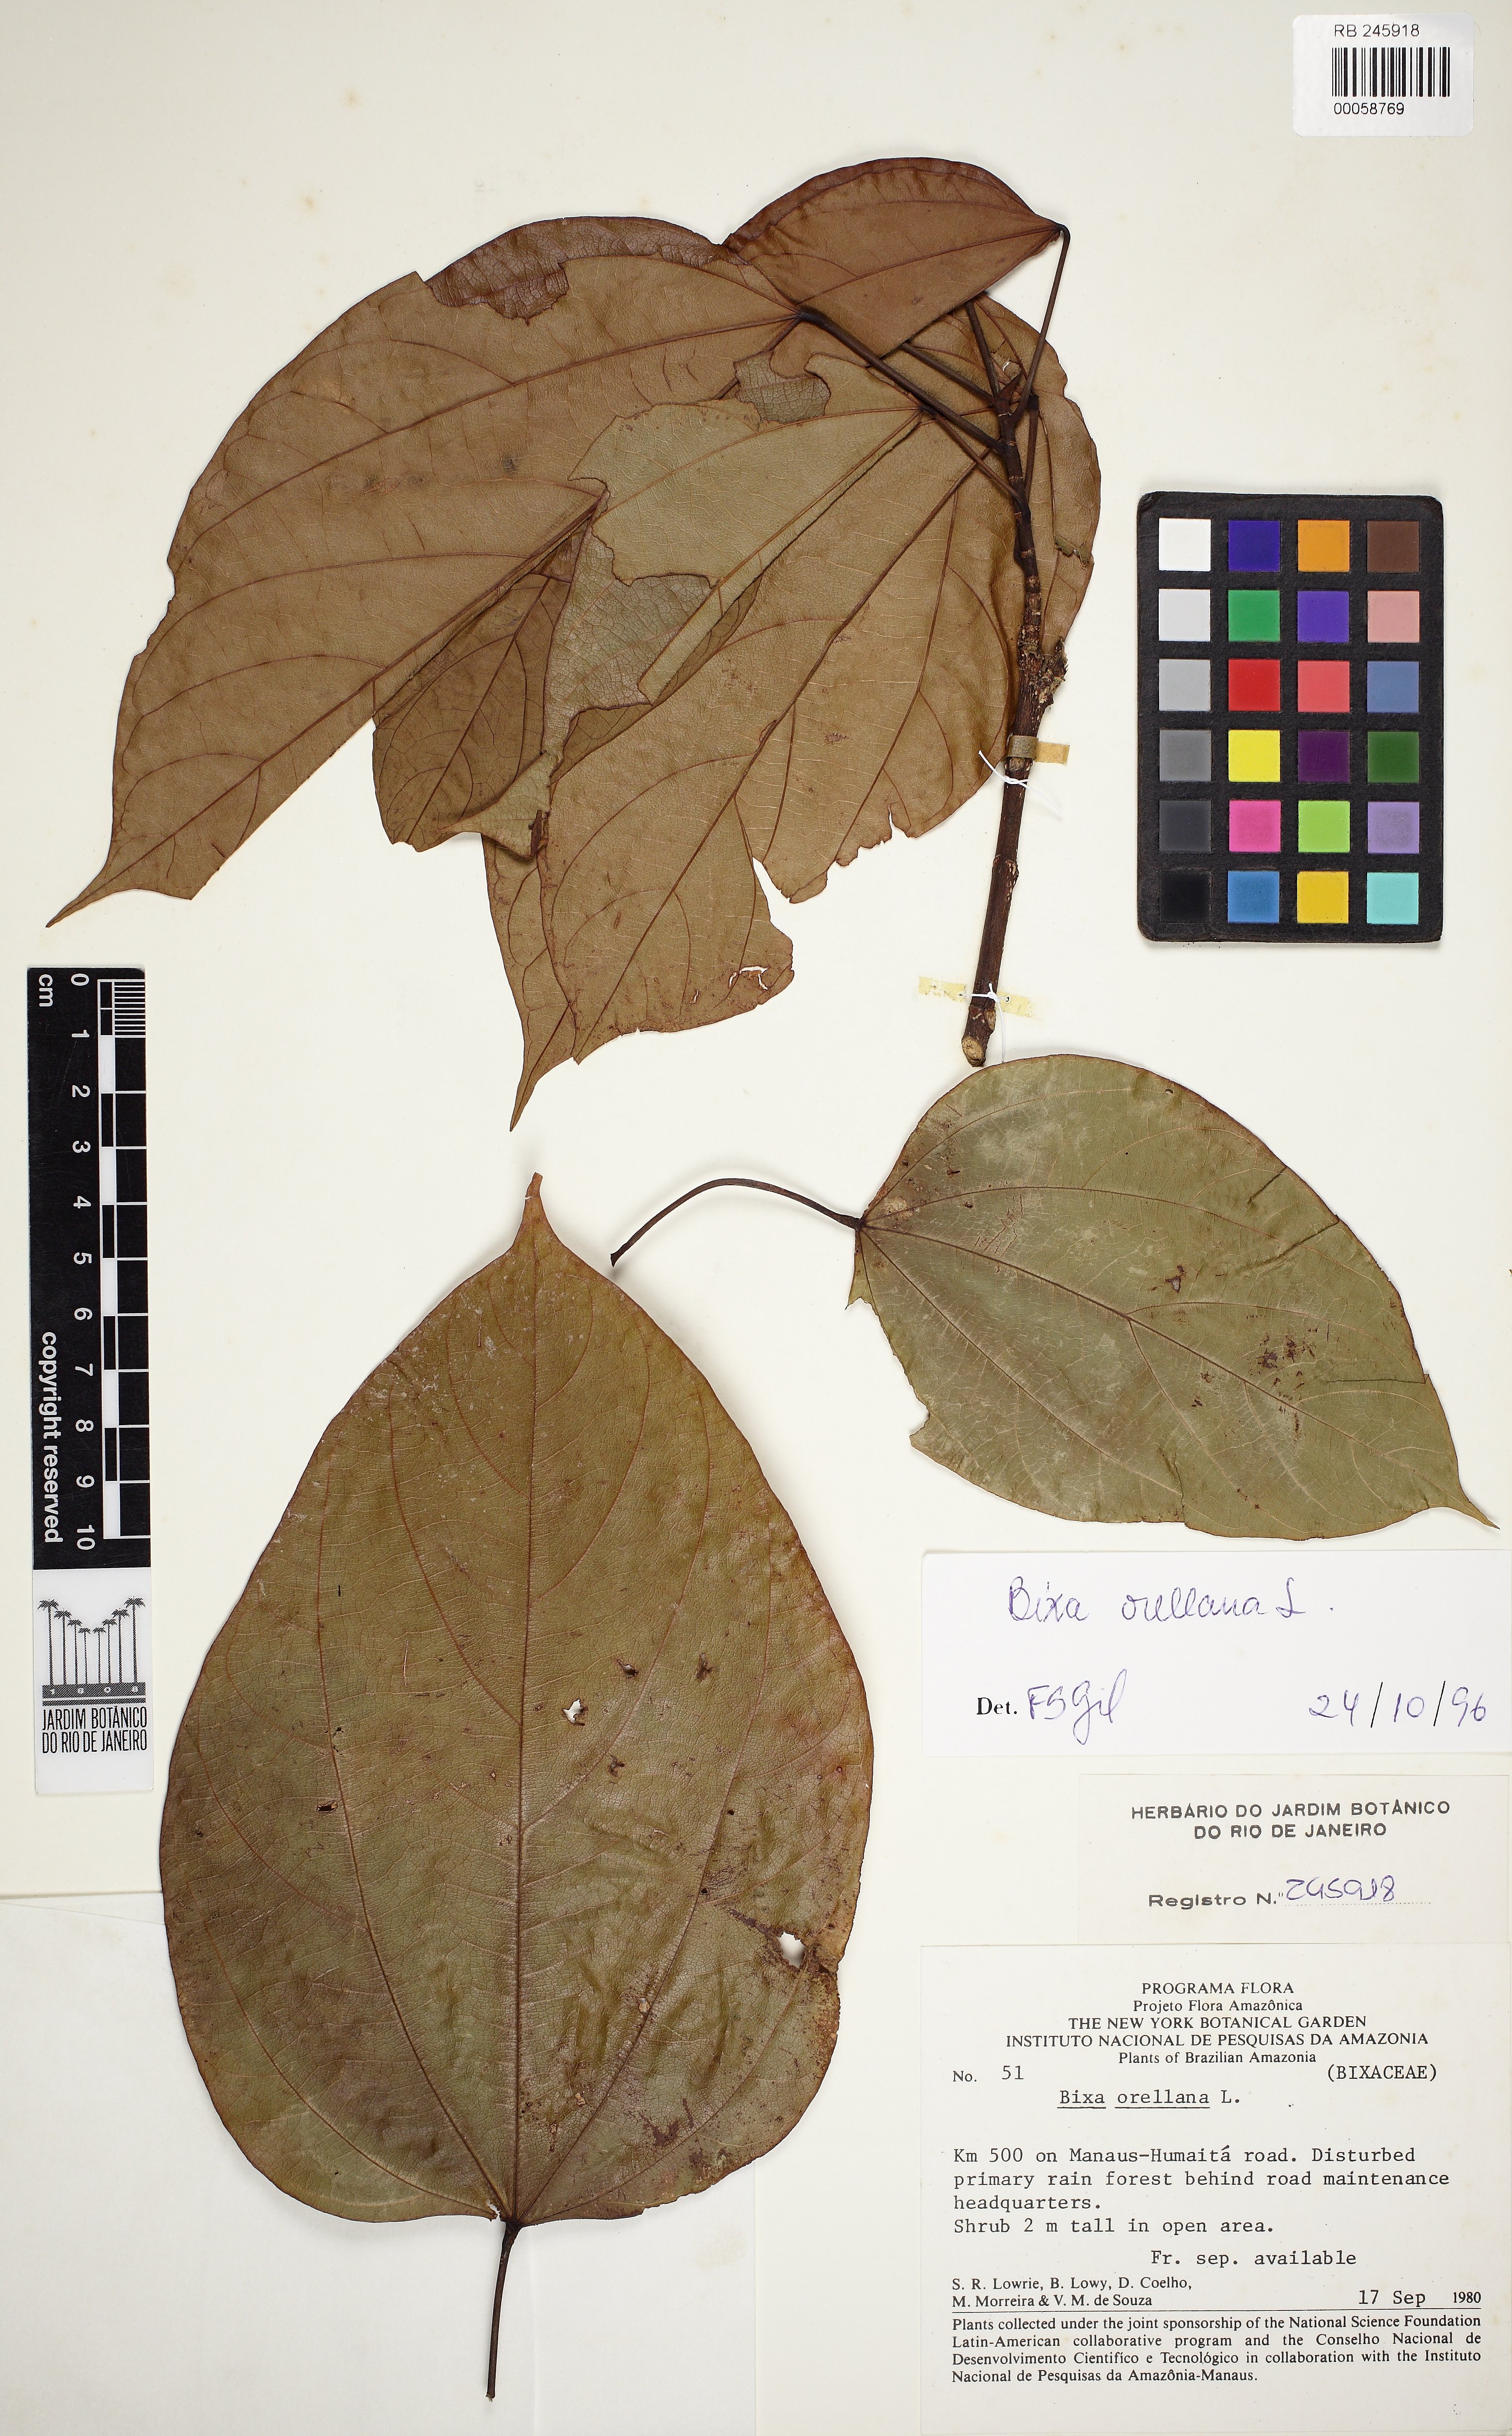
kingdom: Plantae
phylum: Tracheophyta
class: Magnoliopsida
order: Malvales
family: Bixaceae
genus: Bixa
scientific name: Bixa orellana
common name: Lipsticktree
